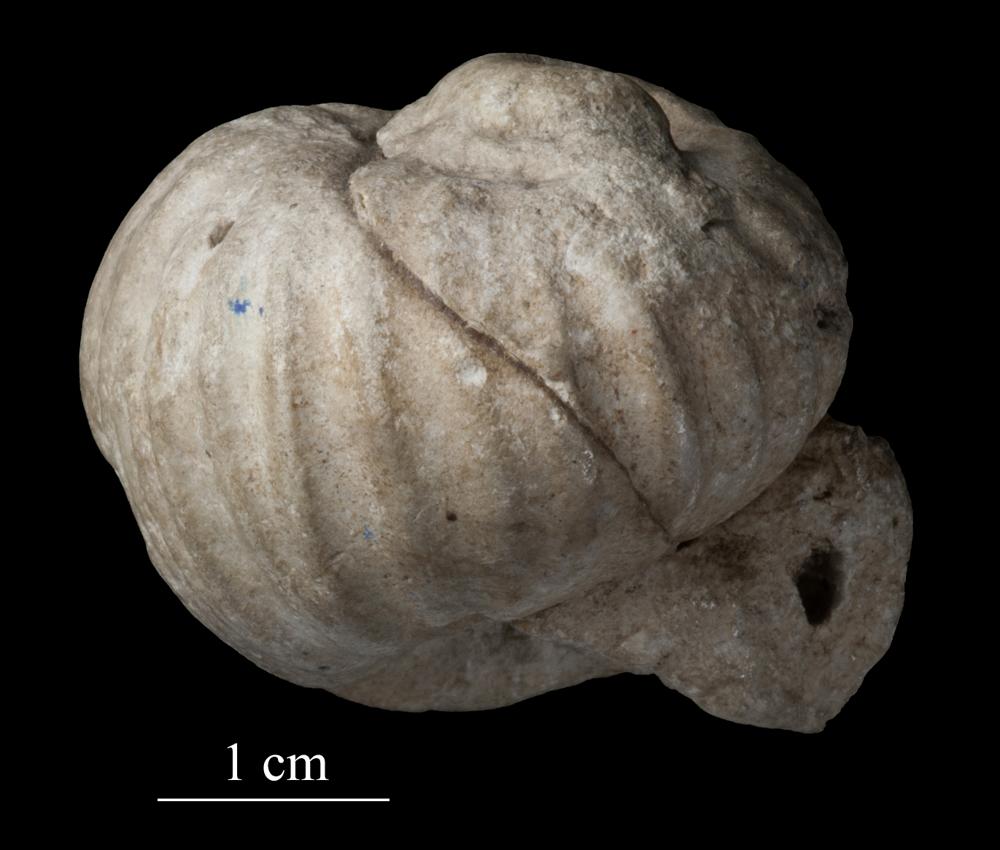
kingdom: Animalia
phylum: Mollusca
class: Gastropoda
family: Holopeidae
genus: Holopea
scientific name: Holopea ampullacea
